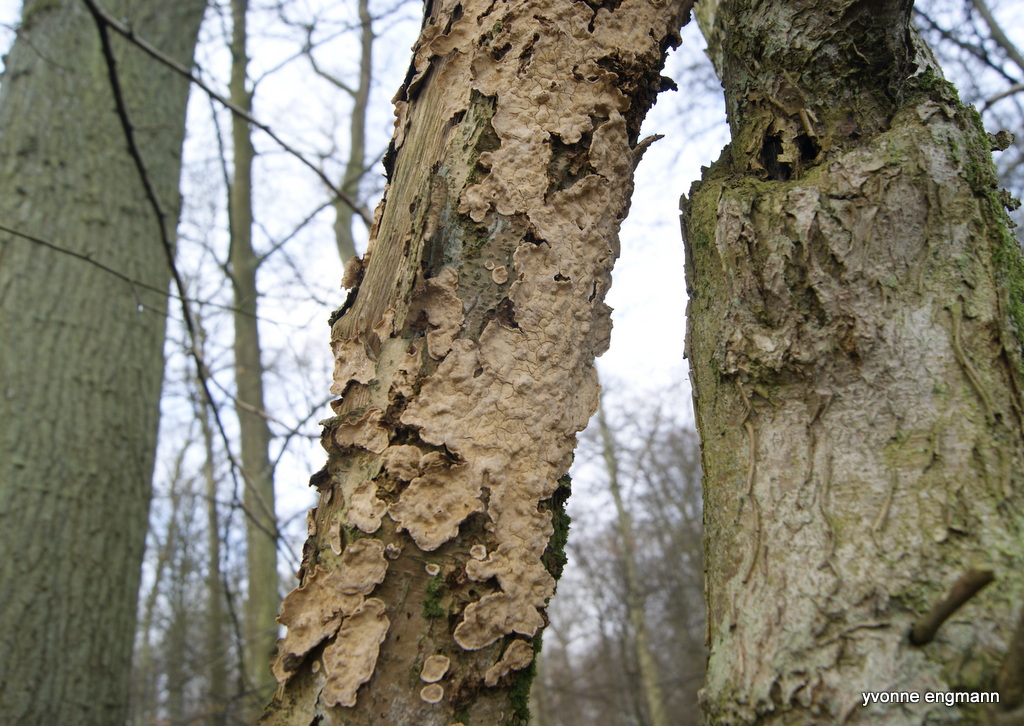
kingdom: Fungi
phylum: Basidiomycota
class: Agaricomycetes
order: Russulales
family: Stereaceae
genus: Stereum
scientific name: Stereum rugosum
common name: rynket lædersvamp
